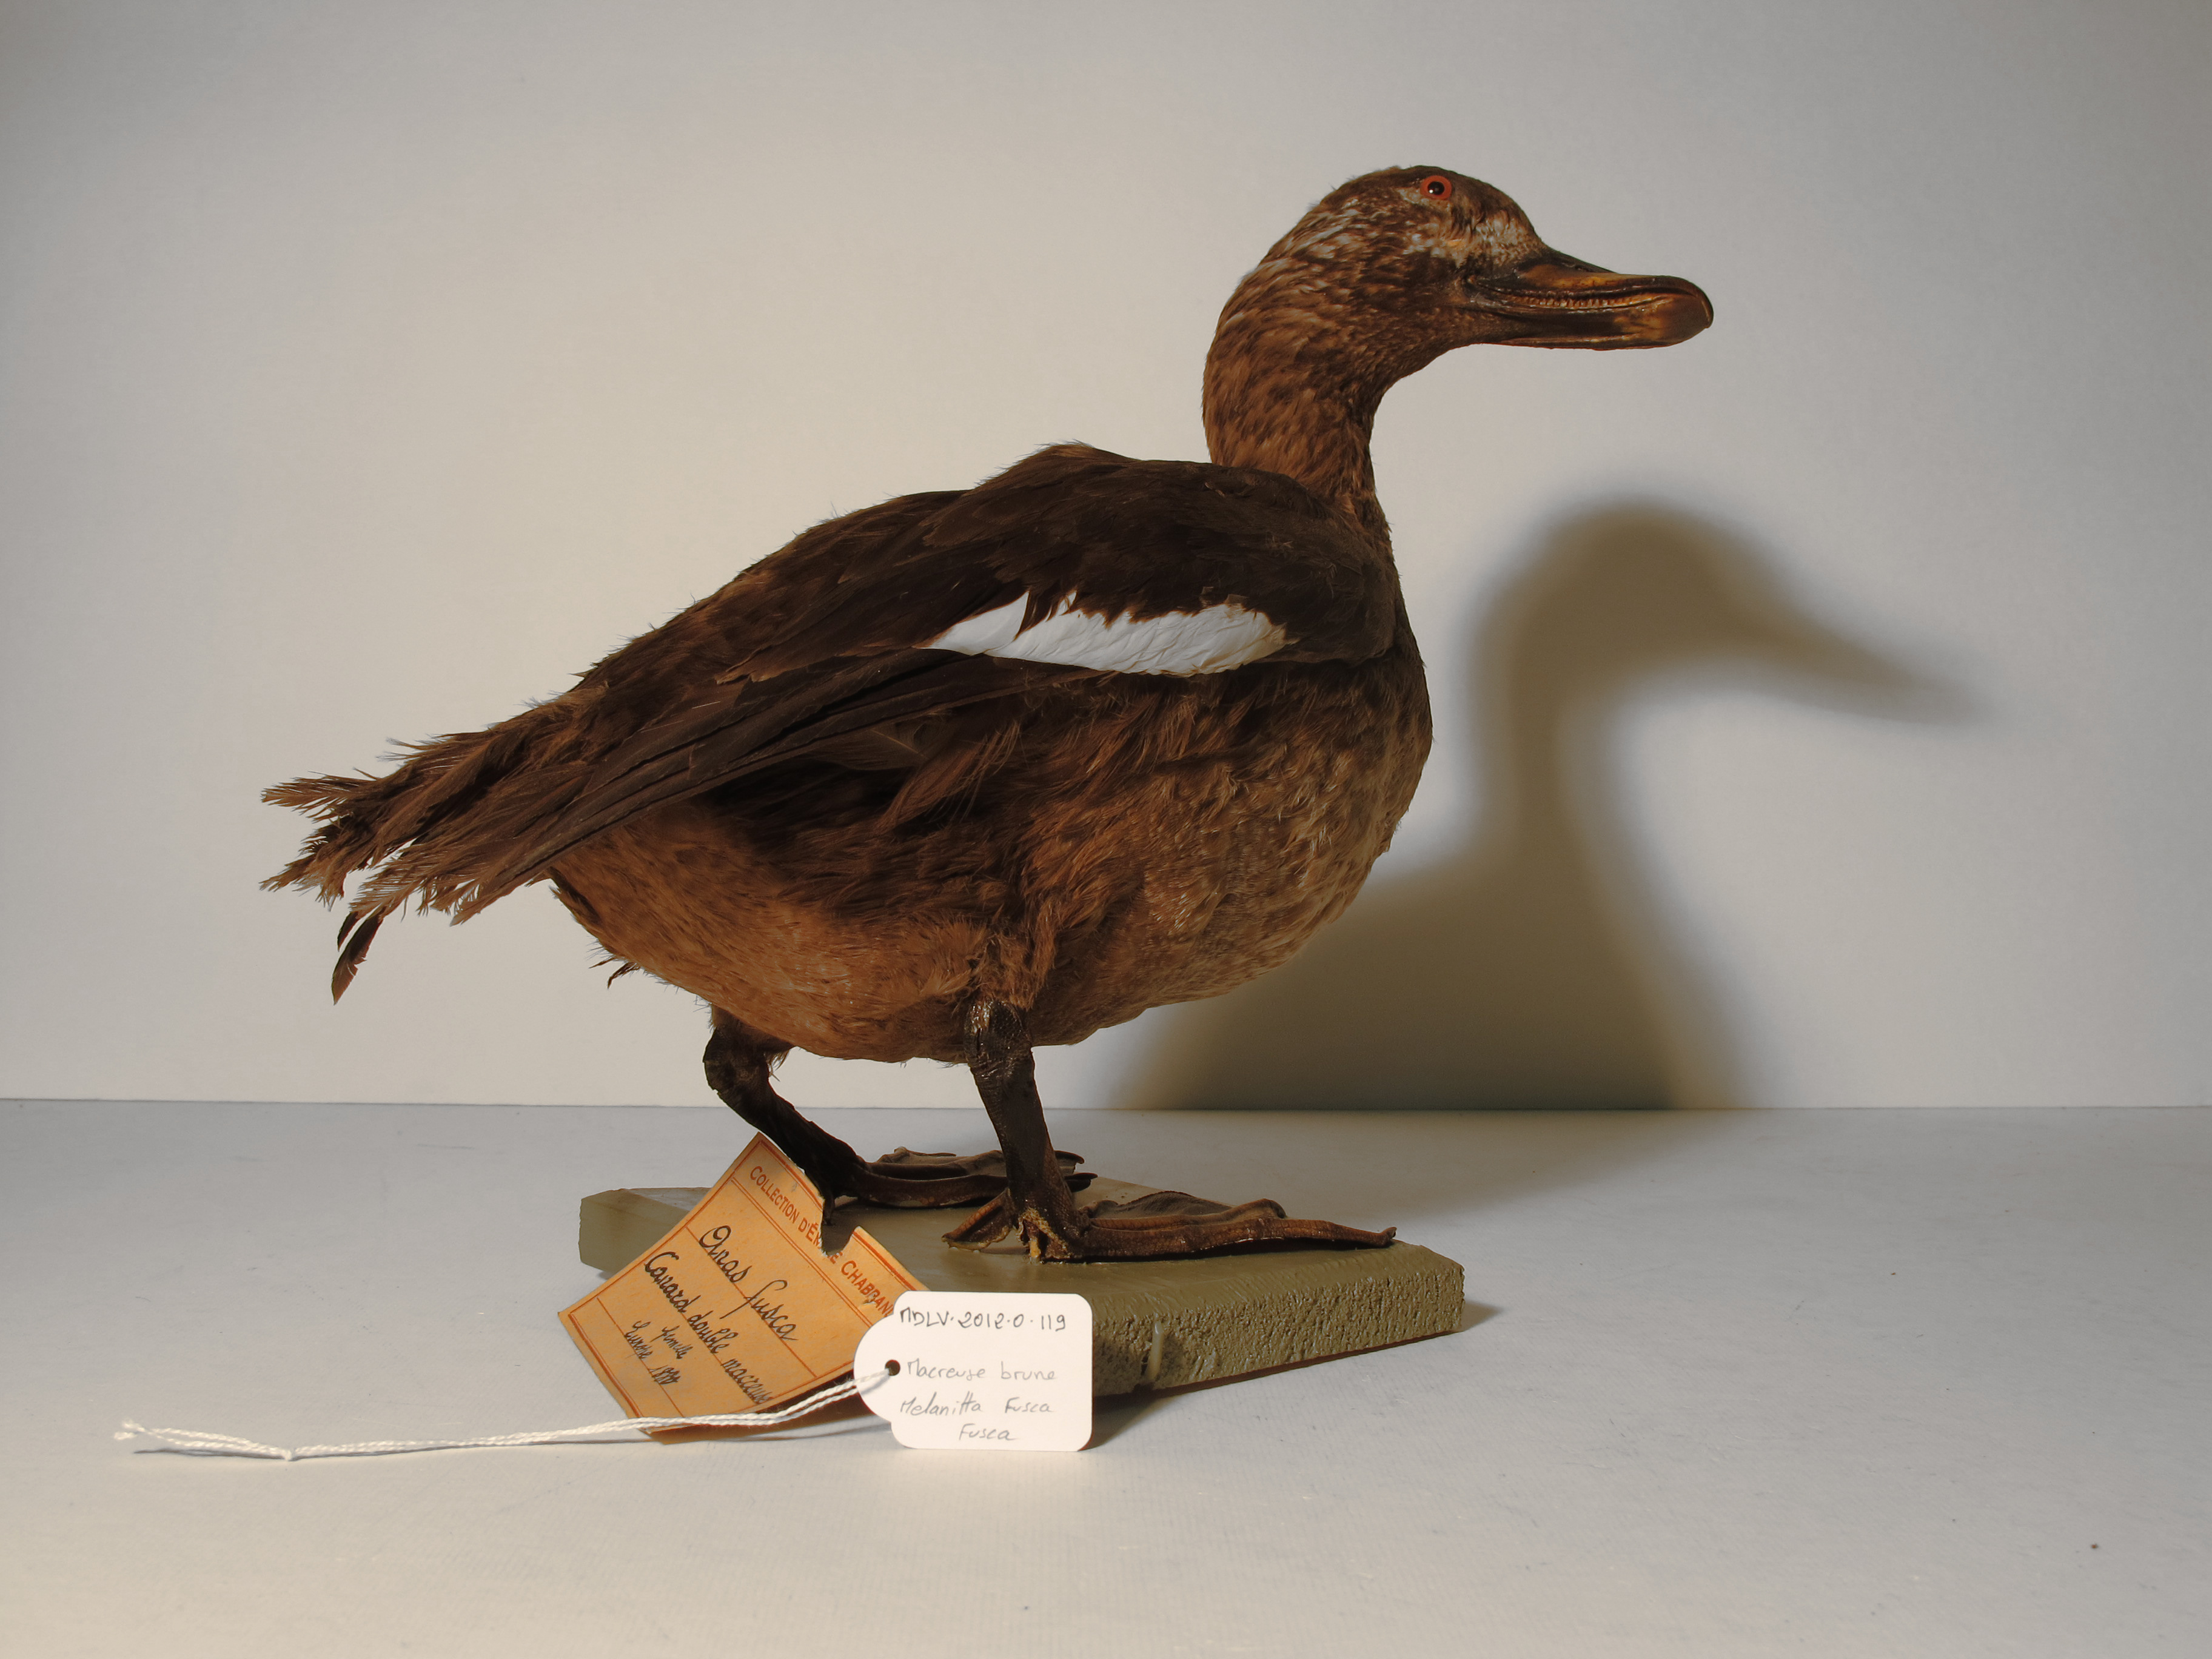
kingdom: Animalia
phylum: Chordata
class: Aves
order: Anseriformes
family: Anatidae
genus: Melanitta
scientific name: Melanitta fusca
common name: White-winged Scoter
